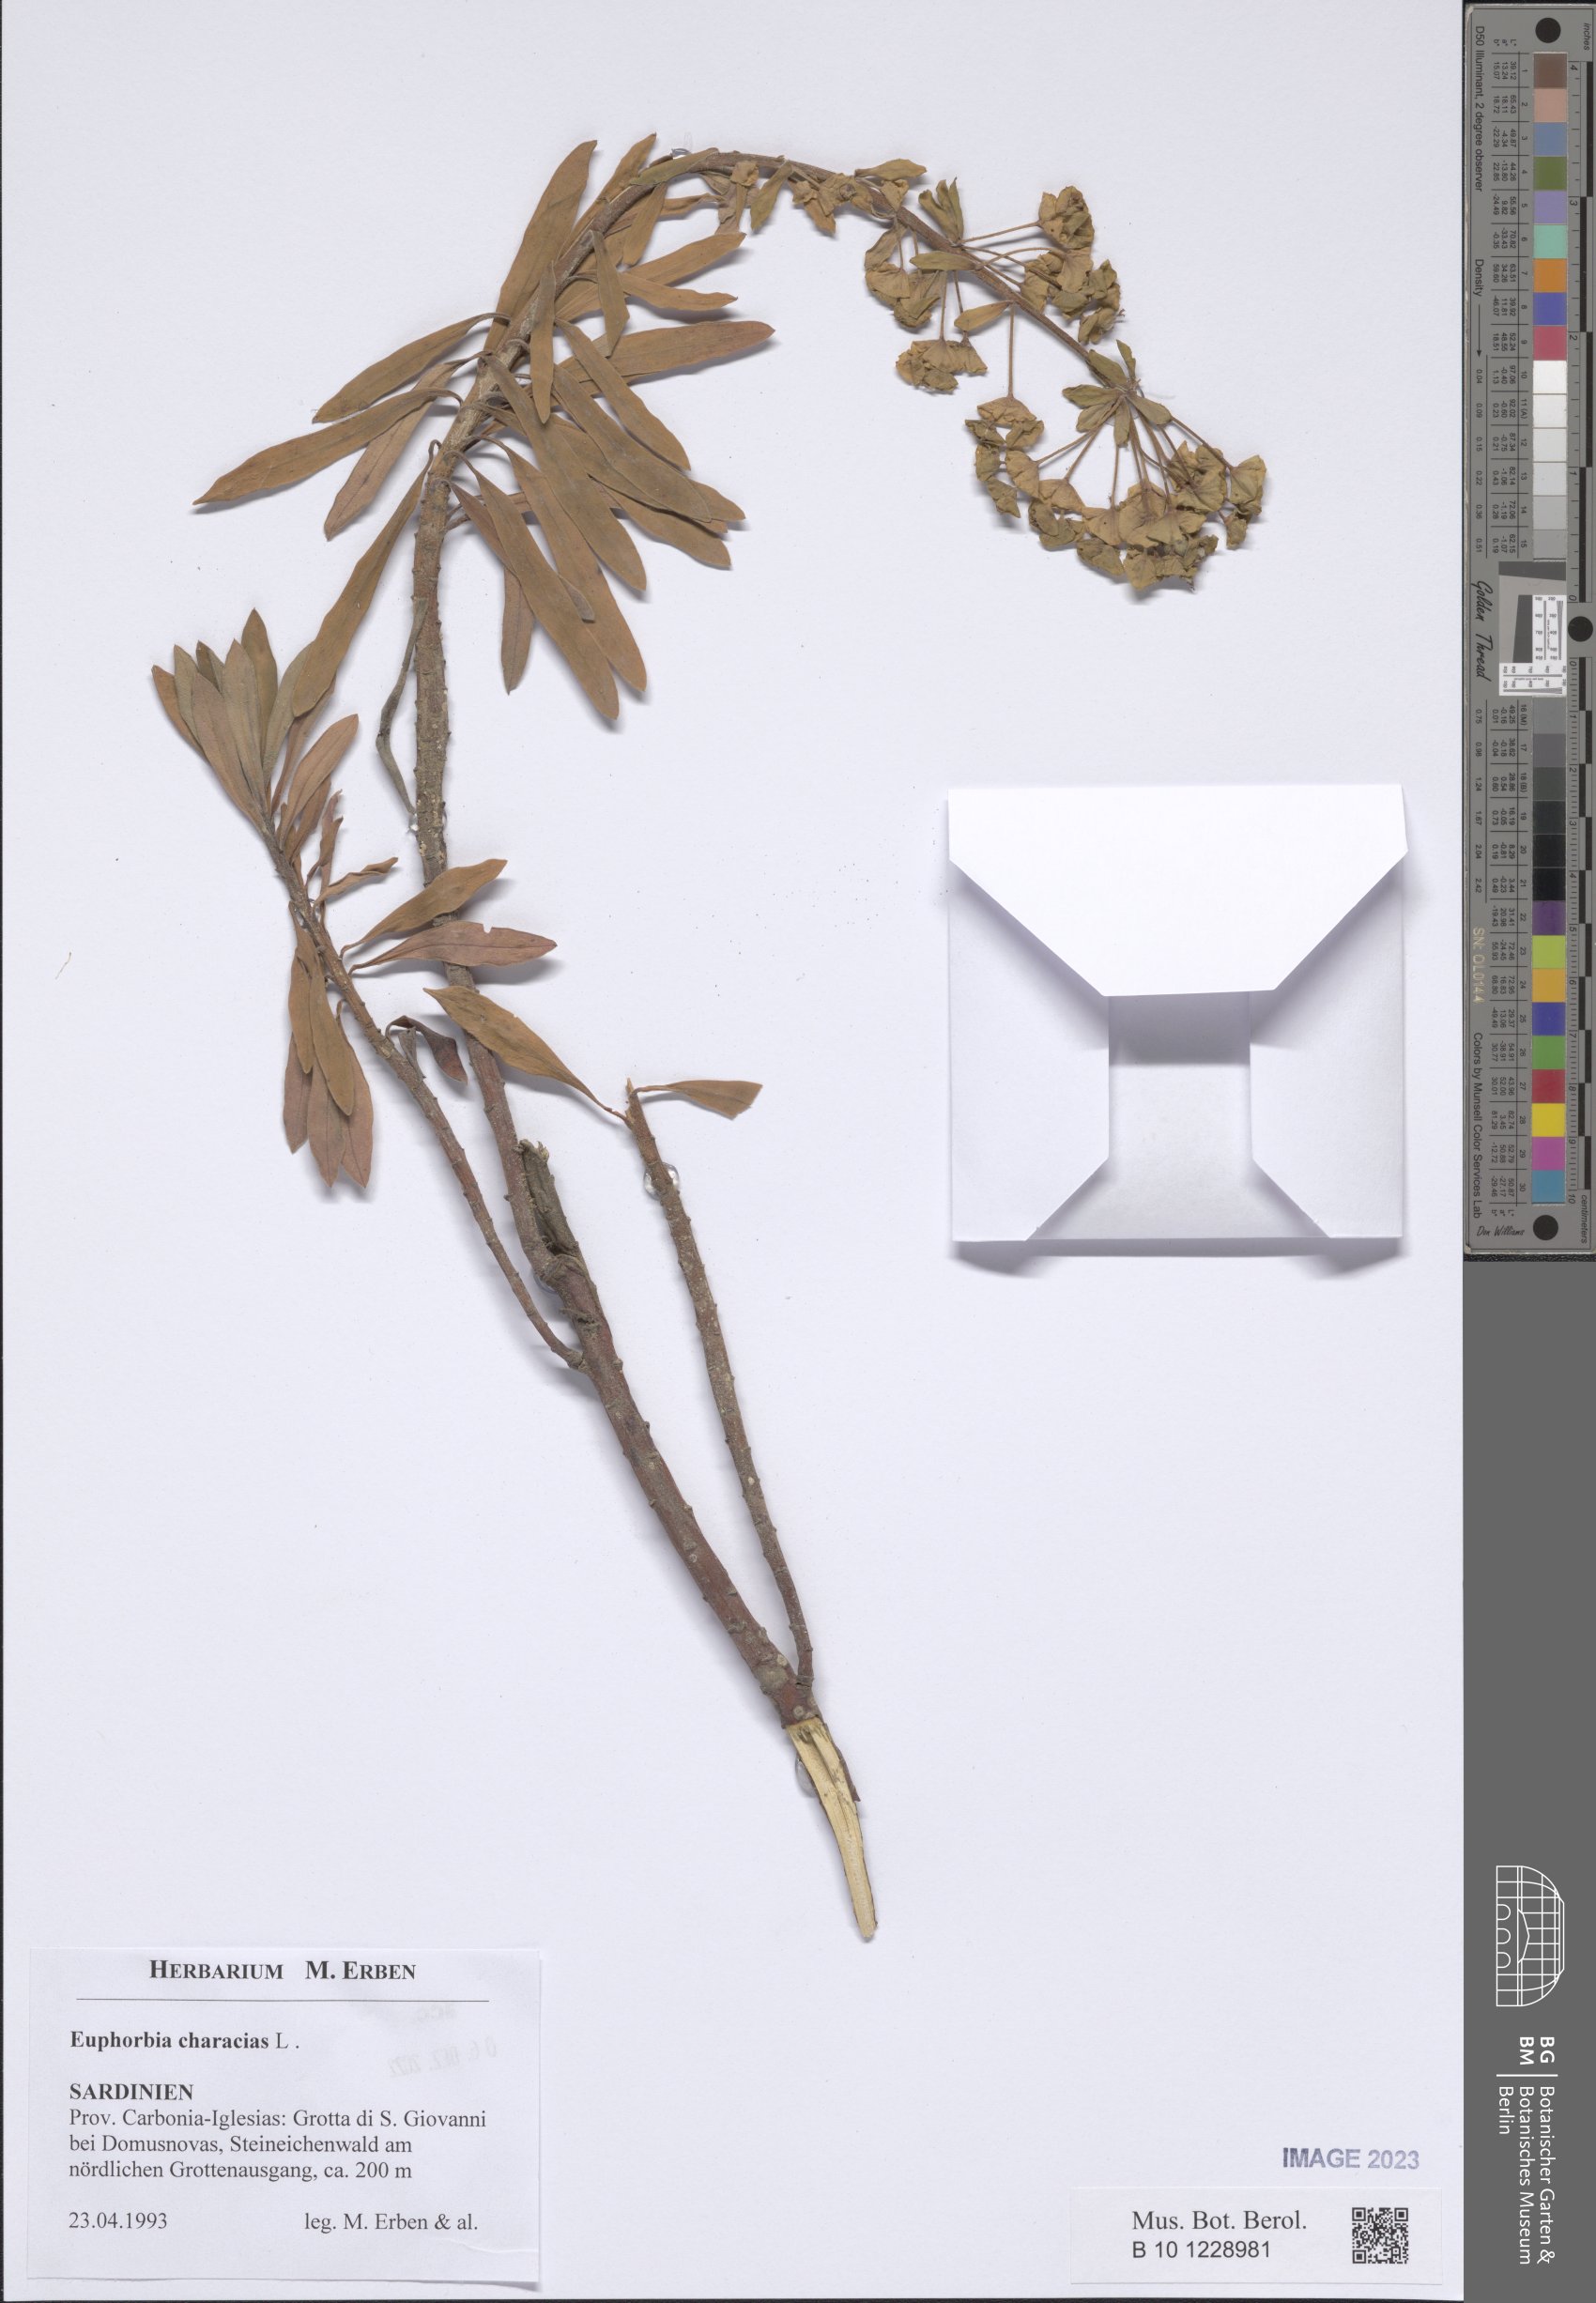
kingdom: Plantae
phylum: Tracheophyta
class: Magnoliopsida
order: Malpighiales
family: Euphorbiaceae
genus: Euphorbia
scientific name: Euphorbia characias
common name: Mediterranean spurge
